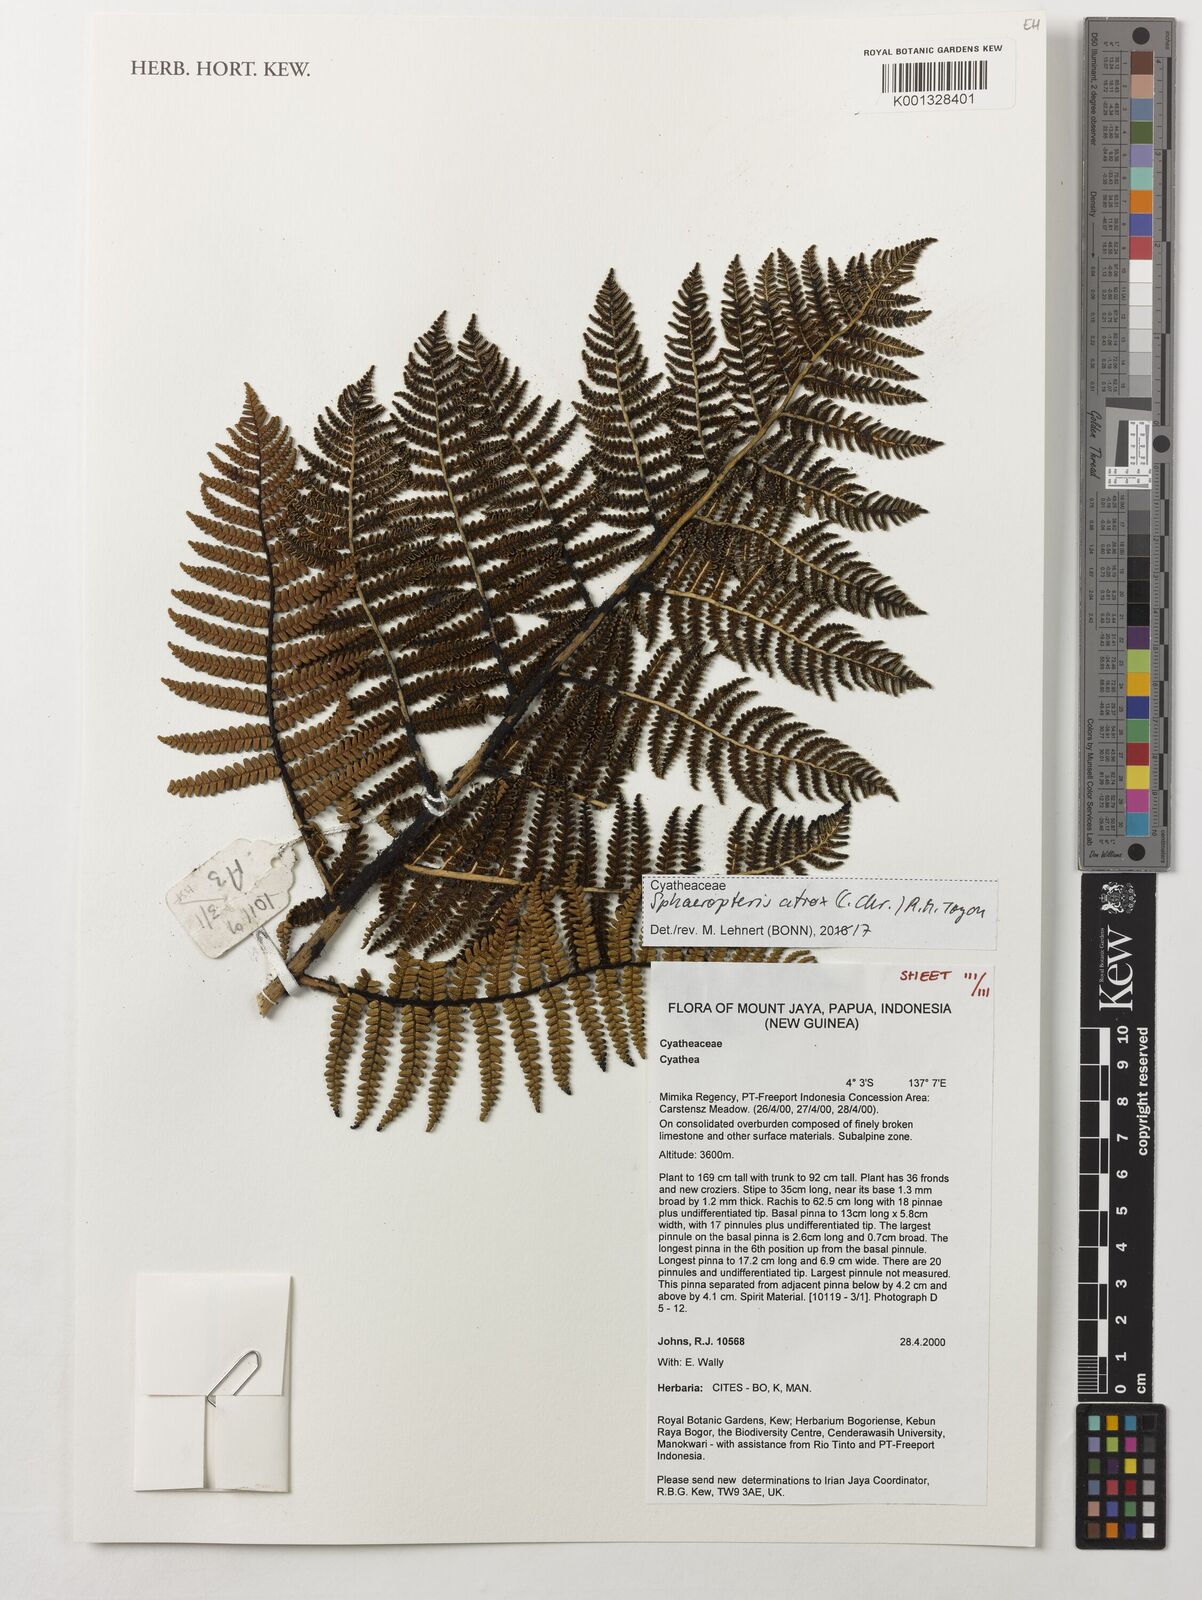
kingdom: Plantae
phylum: Tracheophyta
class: Polypodiopsida
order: Cyatheales
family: Cyatheaceae
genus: Sphaeropteris
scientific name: Sphaeropteris atrox
